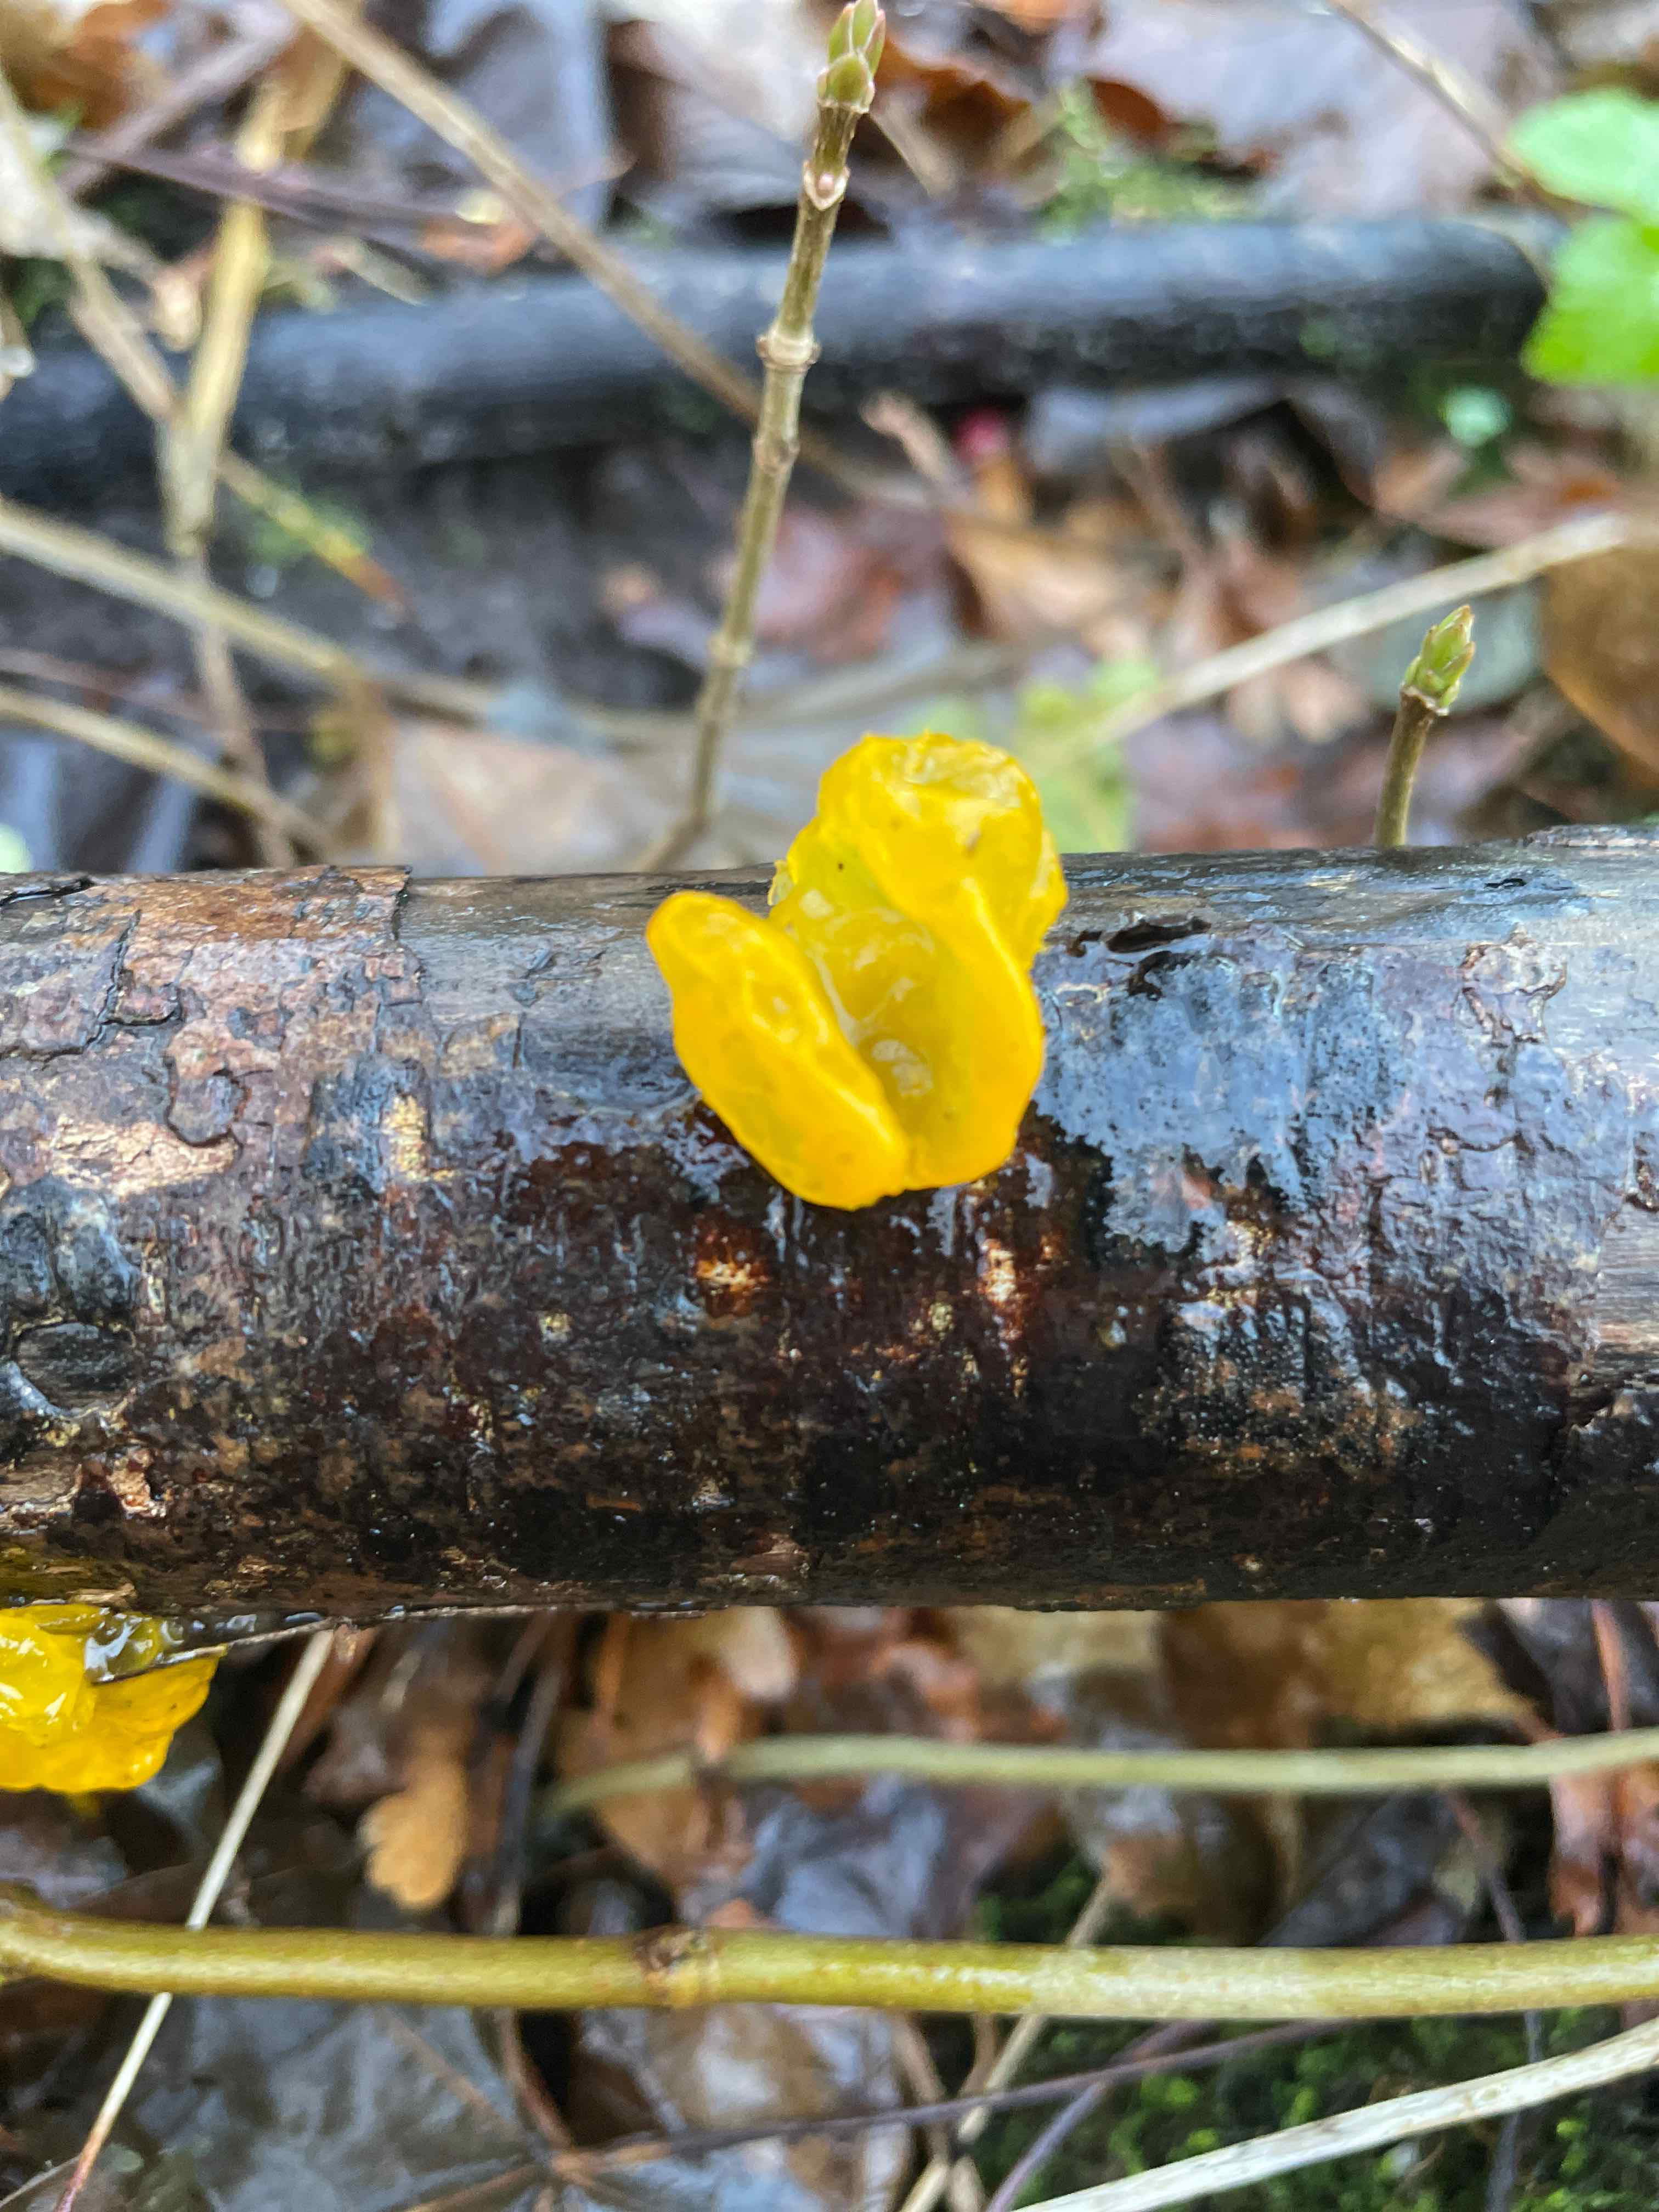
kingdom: Fungi
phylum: Basidiomycota
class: Tremellomycetes
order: Tremellales
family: Tremellaceae
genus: Tremella
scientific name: Tremella mesenterica
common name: gul bævresvamp
